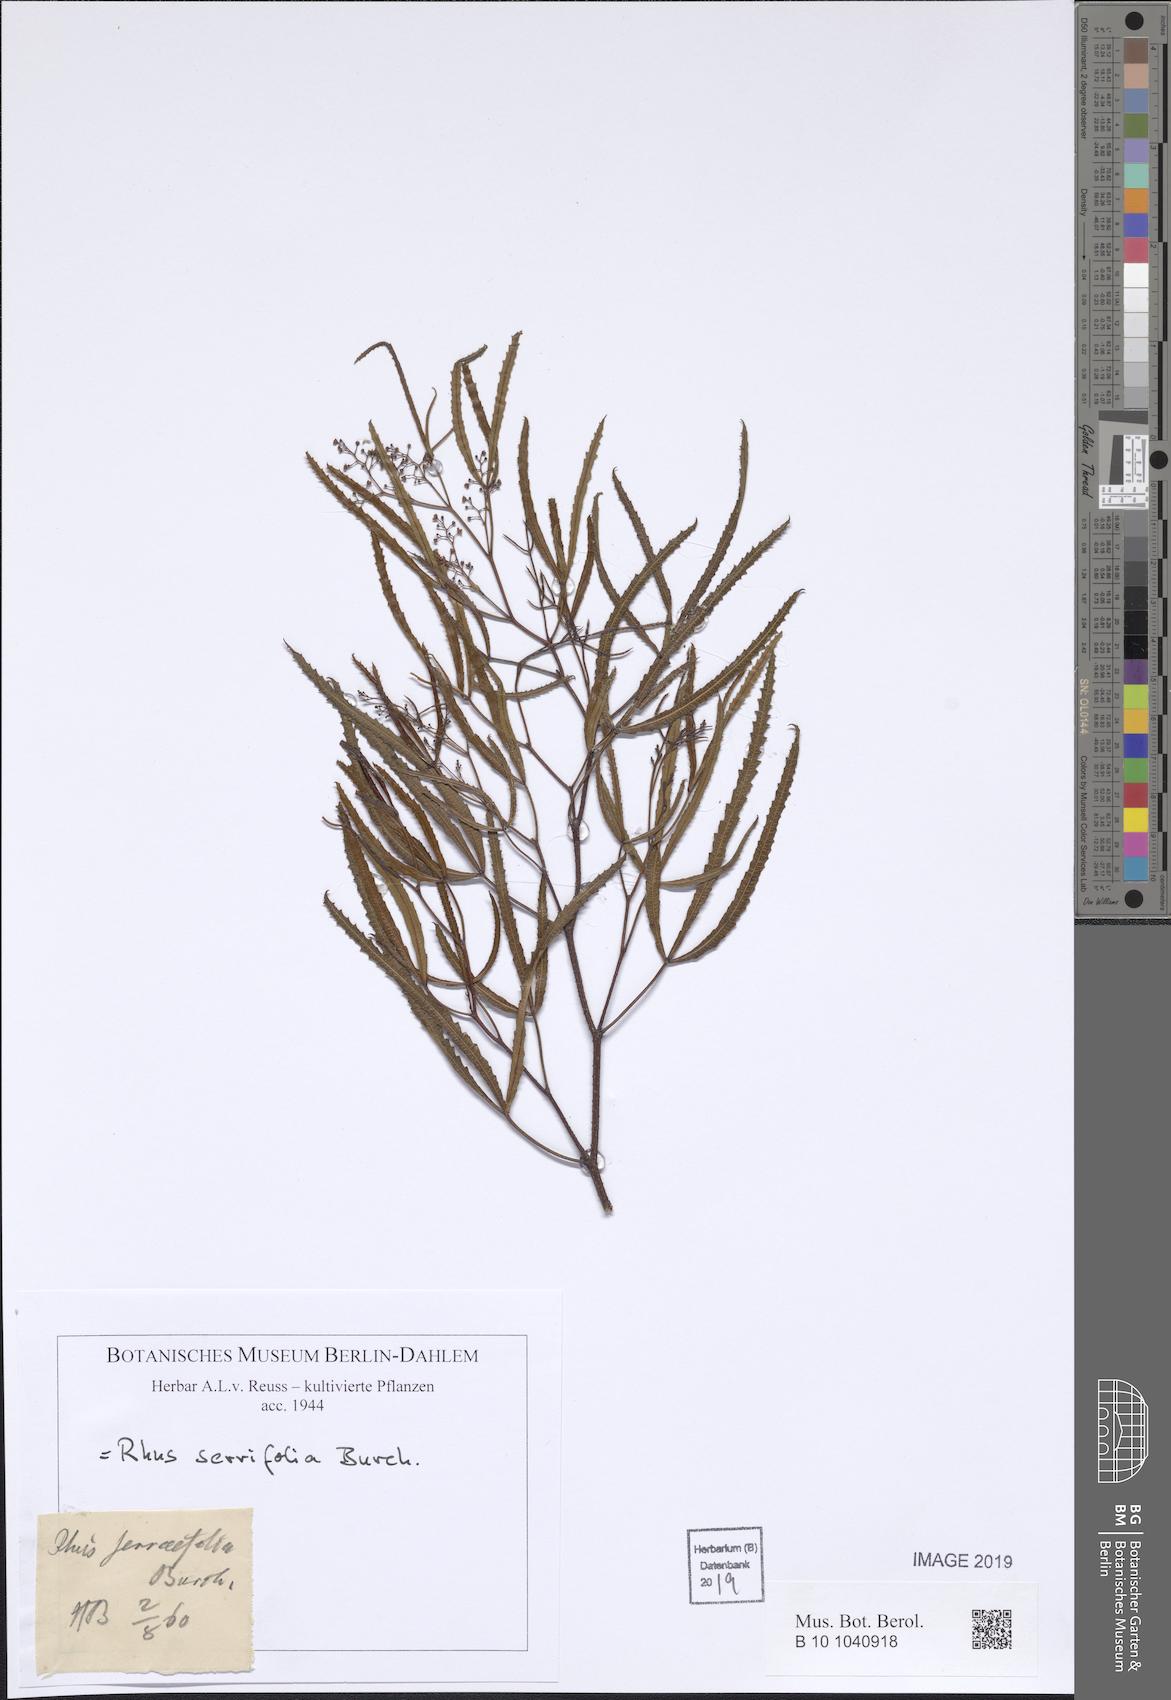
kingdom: Plantae
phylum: Tracheophyta
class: Magnoliopsida
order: Sapindales
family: Anacardiaceae
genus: Searsia
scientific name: Searsia erosa
